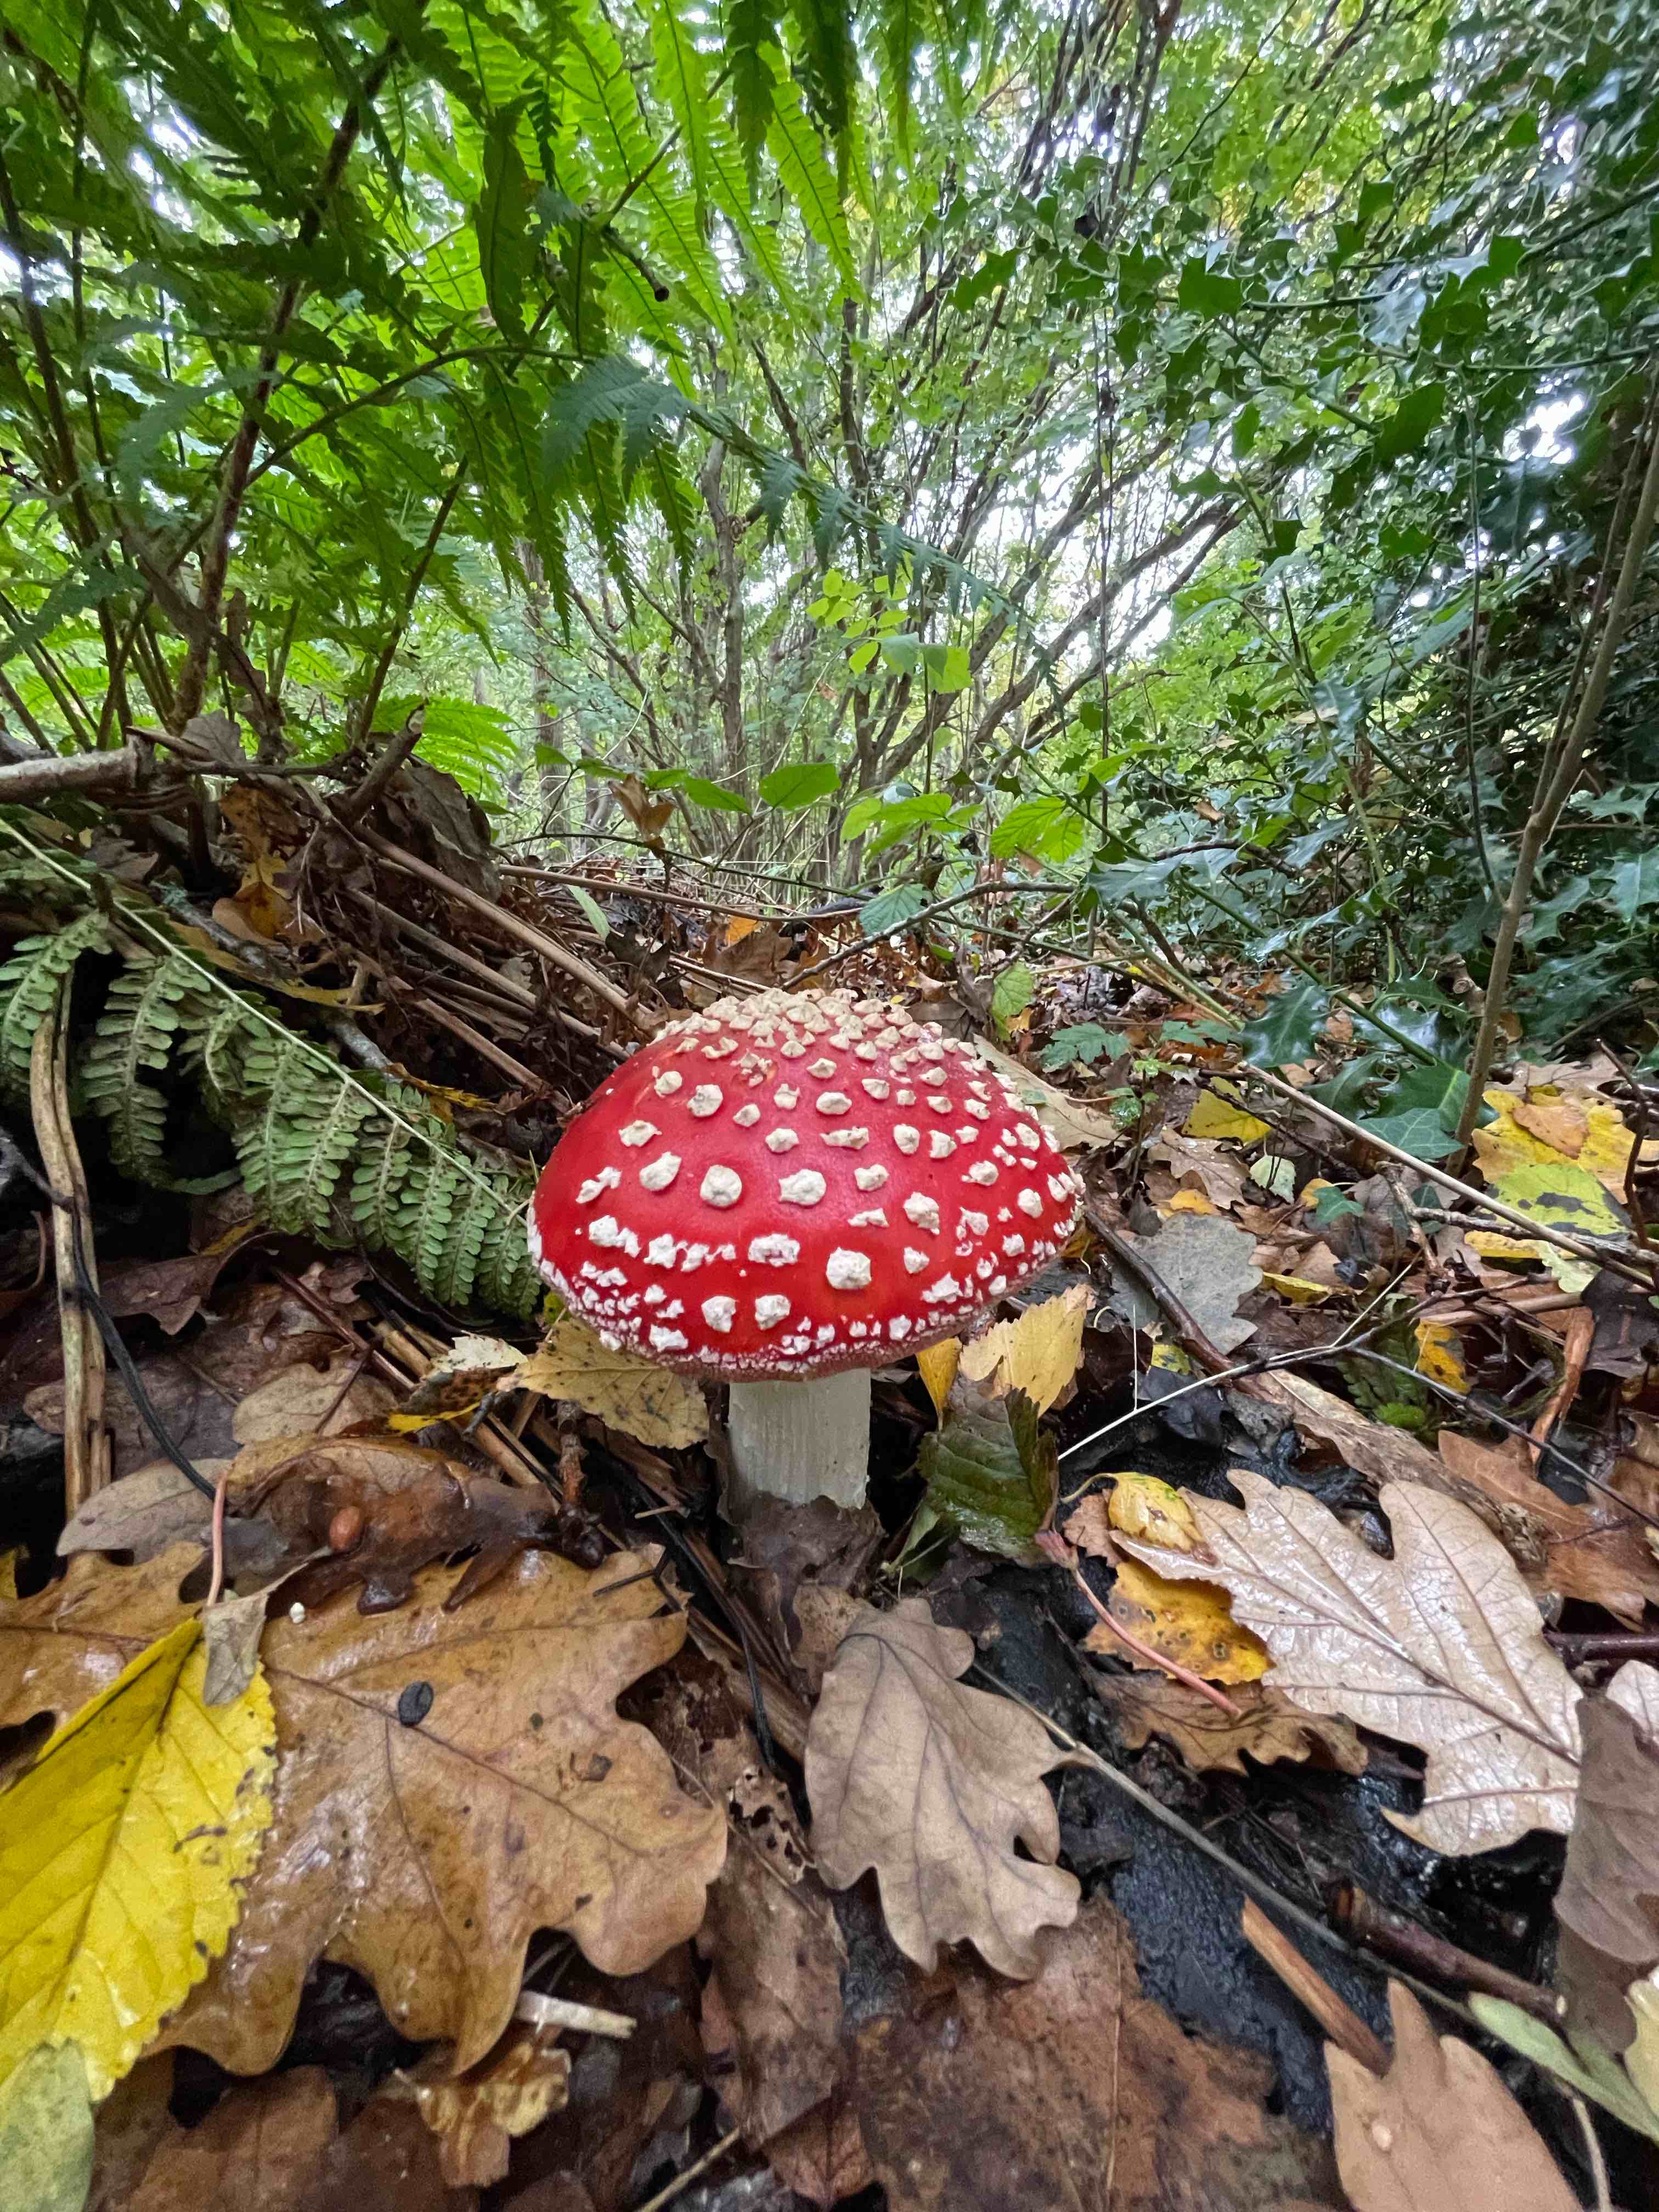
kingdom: Fungi
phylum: Basidiomycota
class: Agaricomycetes
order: Agaricales
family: Amanitaceae
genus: Amanita
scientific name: Amanita muscaria
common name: rød fluesvamp
